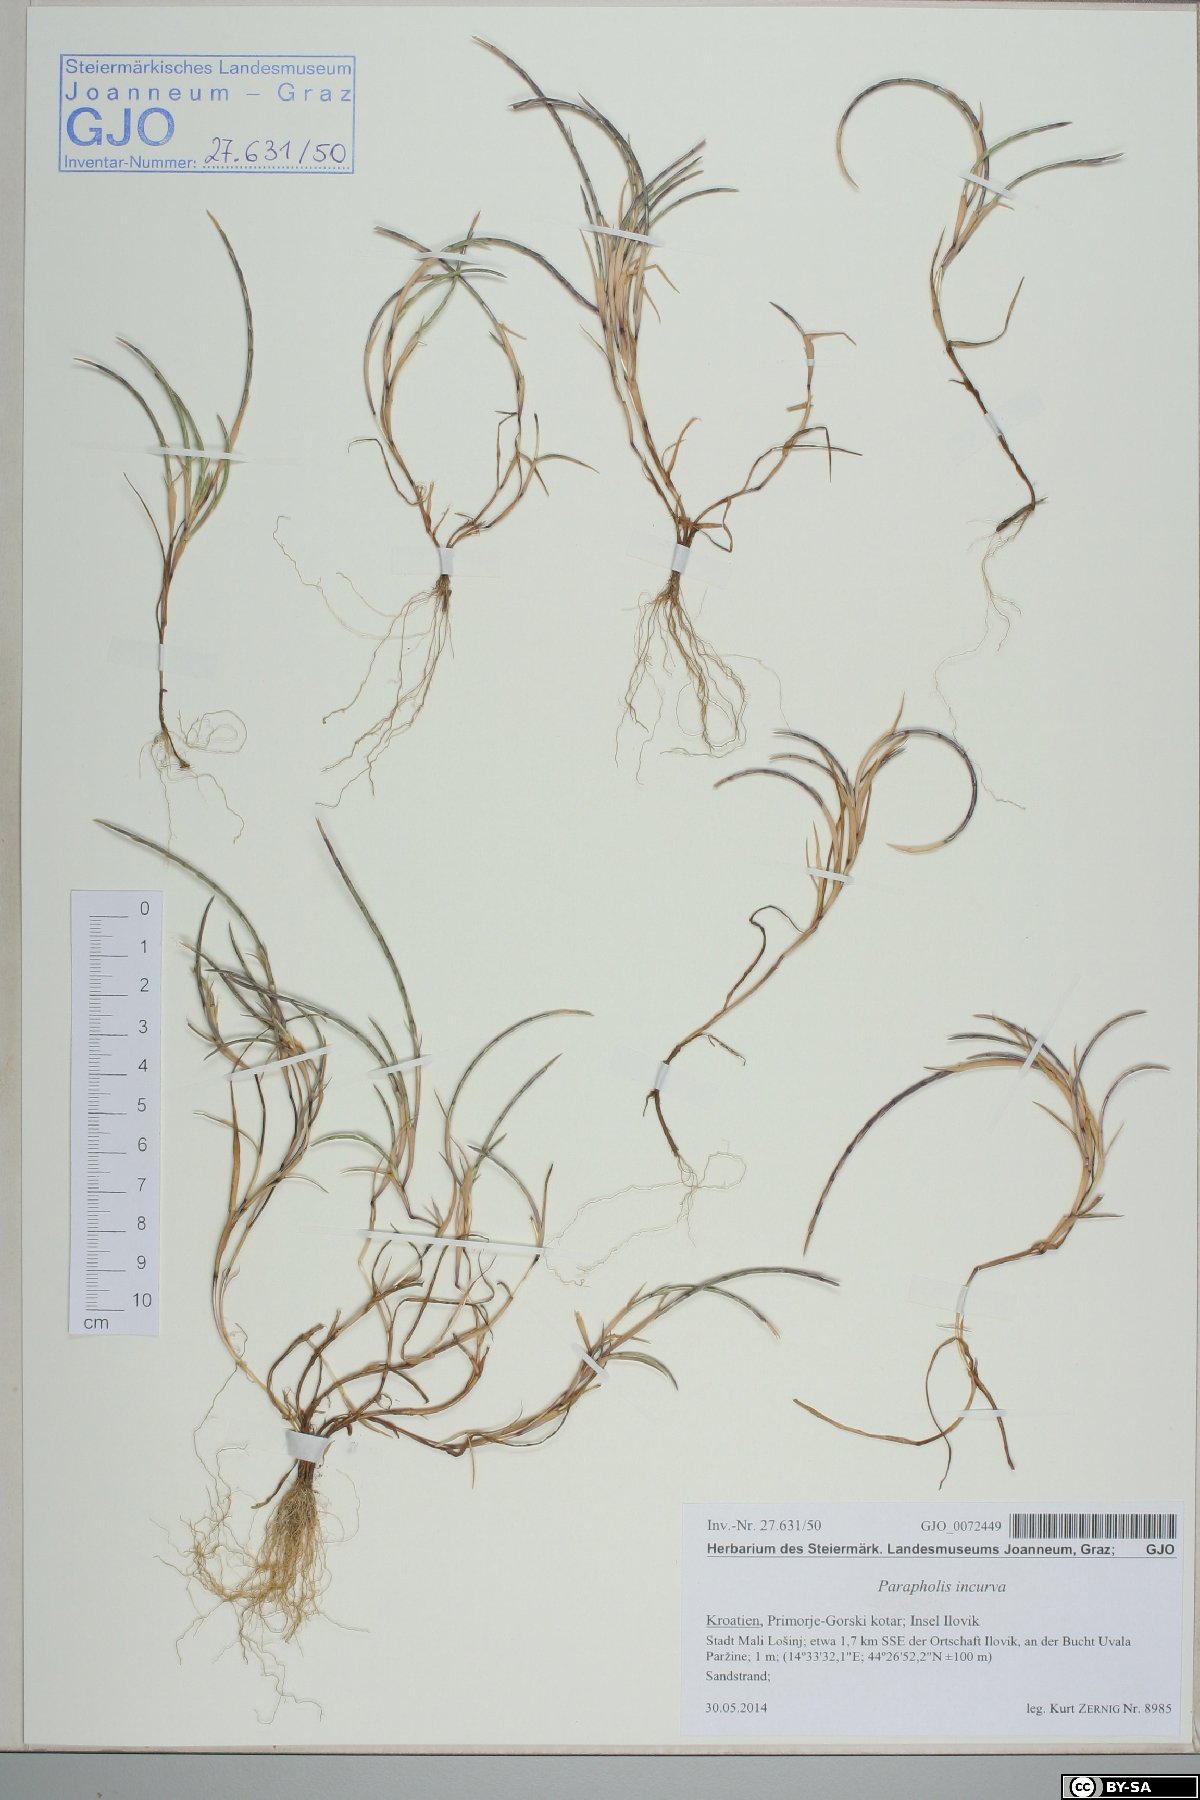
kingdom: Plantae
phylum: Tracheophyta
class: Liliopsida
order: Poales
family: Poaceae
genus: Parapholis
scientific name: Parapholis incurva
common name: Curved sicklegrass
